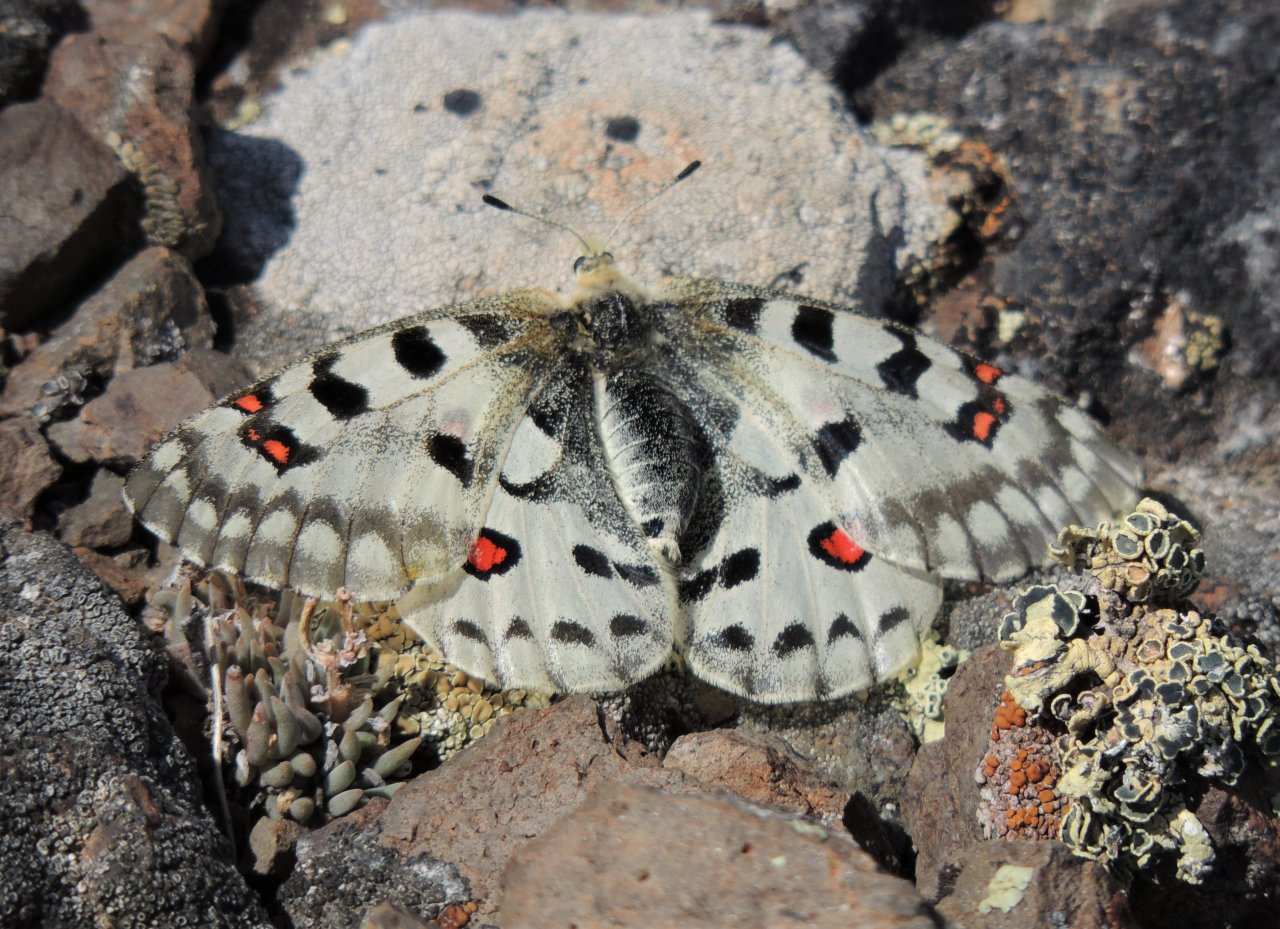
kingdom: Animalia
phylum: Arthropoda
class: Insecta
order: Lepidoptera
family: Papilionidae
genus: Parnassius
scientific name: Parnassius smintheus
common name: Rocky Mountain Parnassian
